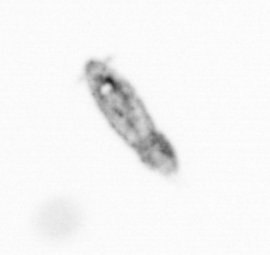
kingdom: Animalia
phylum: Arthropoda
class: Copepoda
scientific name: Copepoda
